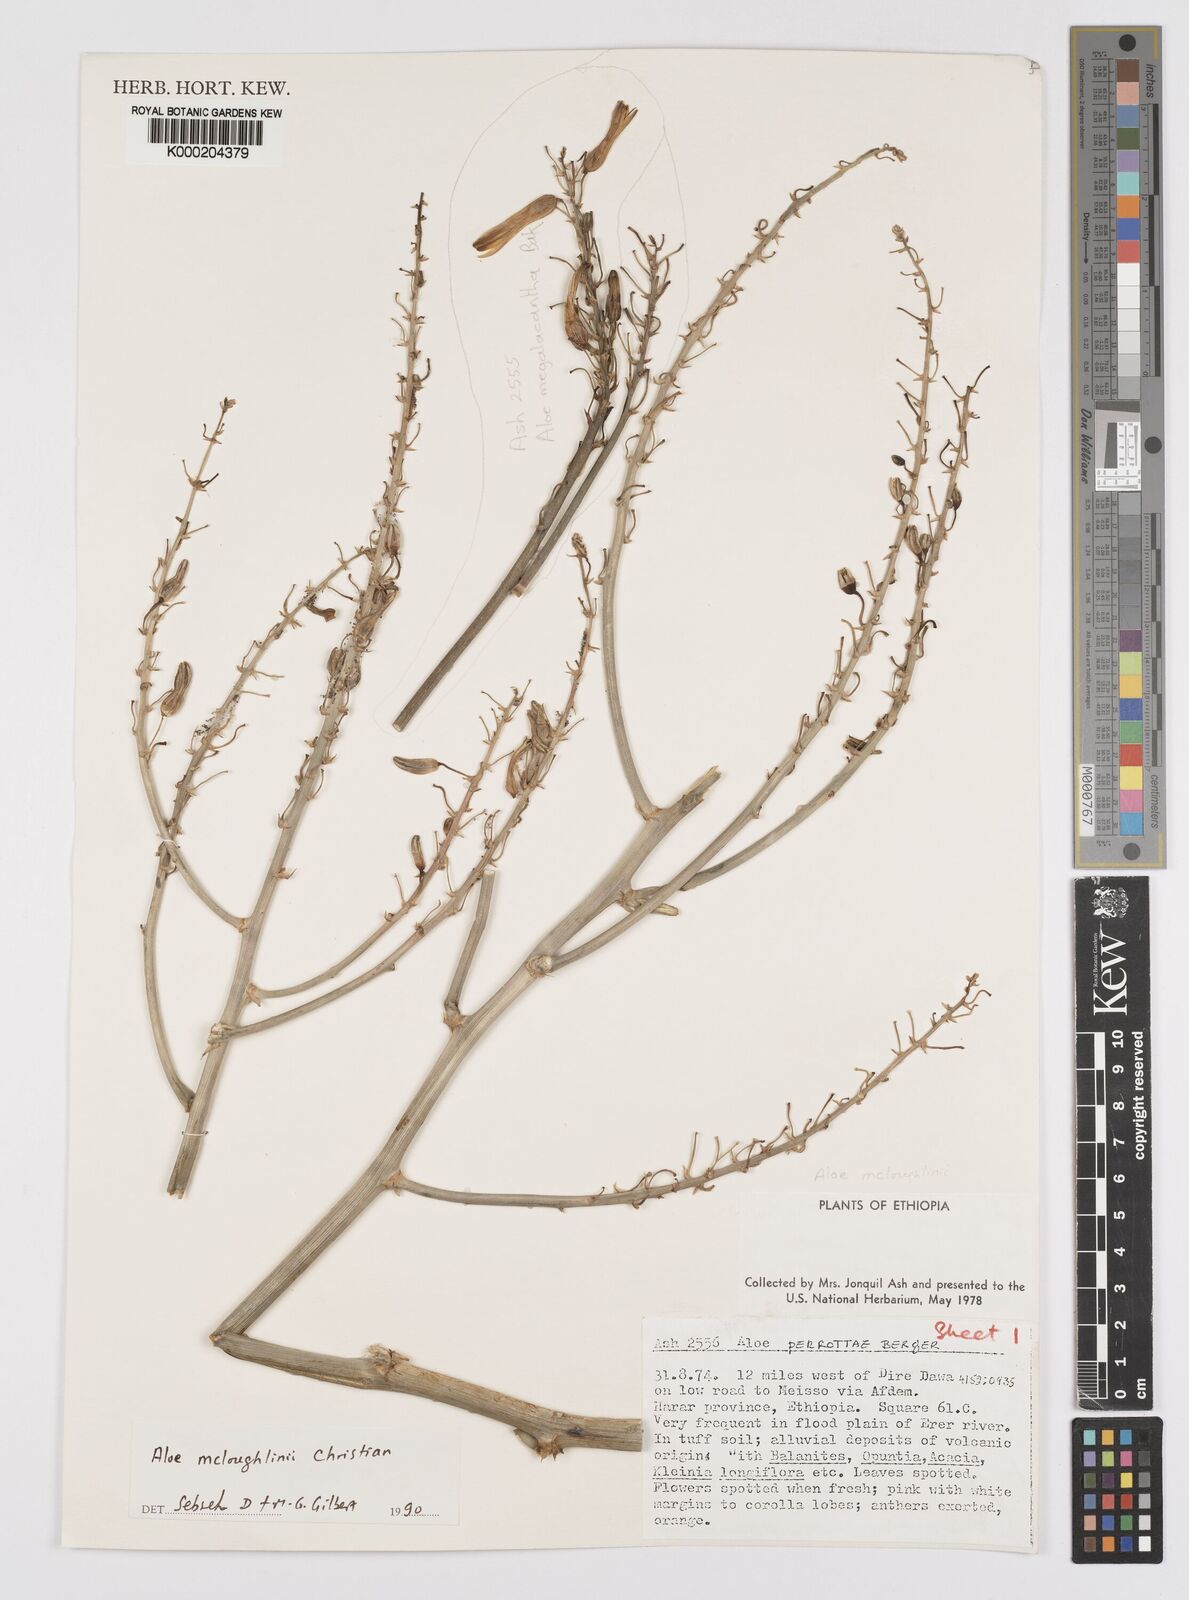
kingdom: Plantae
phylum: Tracheophyta
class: Liliopsida
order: Asparagales
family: Asphodelaceae
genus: Aloe
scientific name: Aloe
